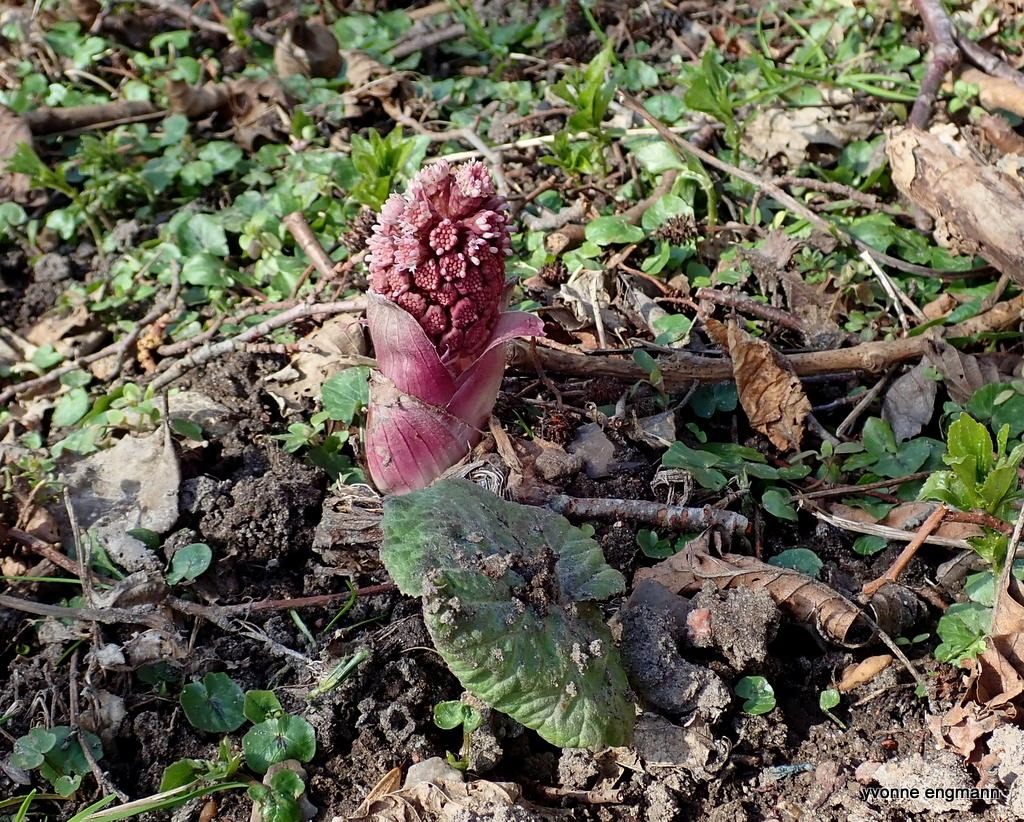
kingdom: Plantae
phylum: Tracheophyta
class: Magnoliopsida
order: Asterales
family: Asteraceae
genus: Petasites
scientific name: Petasites hybridus
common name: Rød hestehov
